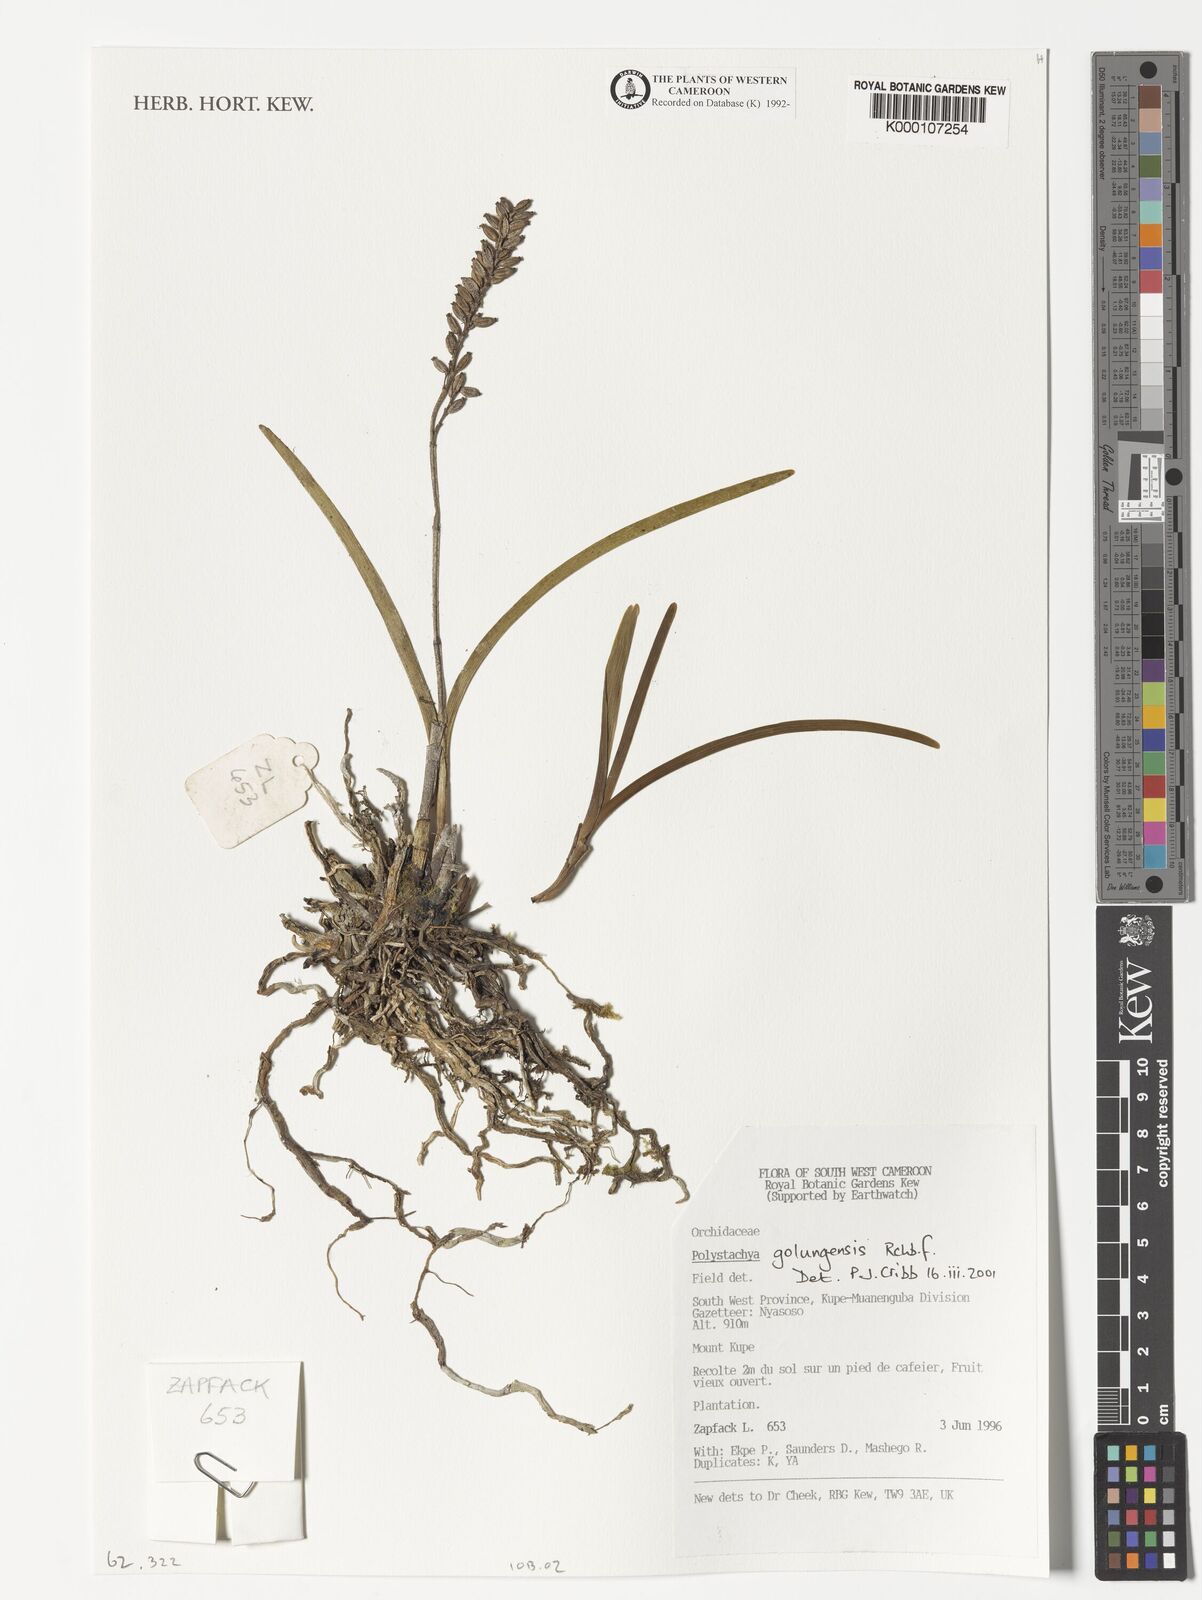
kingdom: Plantae
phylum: Tracheophyta
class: Liliopsida
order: Asparagales
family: Orchidaceae
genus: Polystachya
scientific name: Polystachya golungensis
